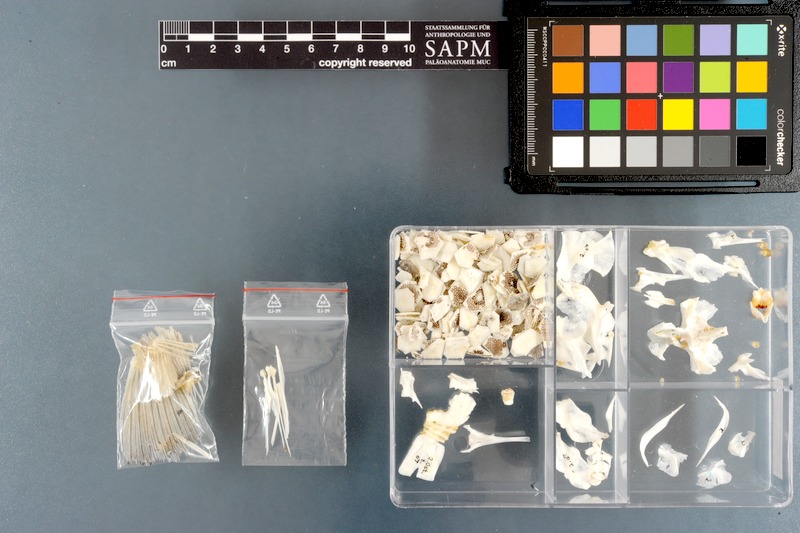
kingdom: Animalia
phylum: Chordata
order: Tetraodontiformes
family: Ostraciidae
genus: Ostracion
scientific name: Ostracion cubicus
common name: Cube trunkfish
